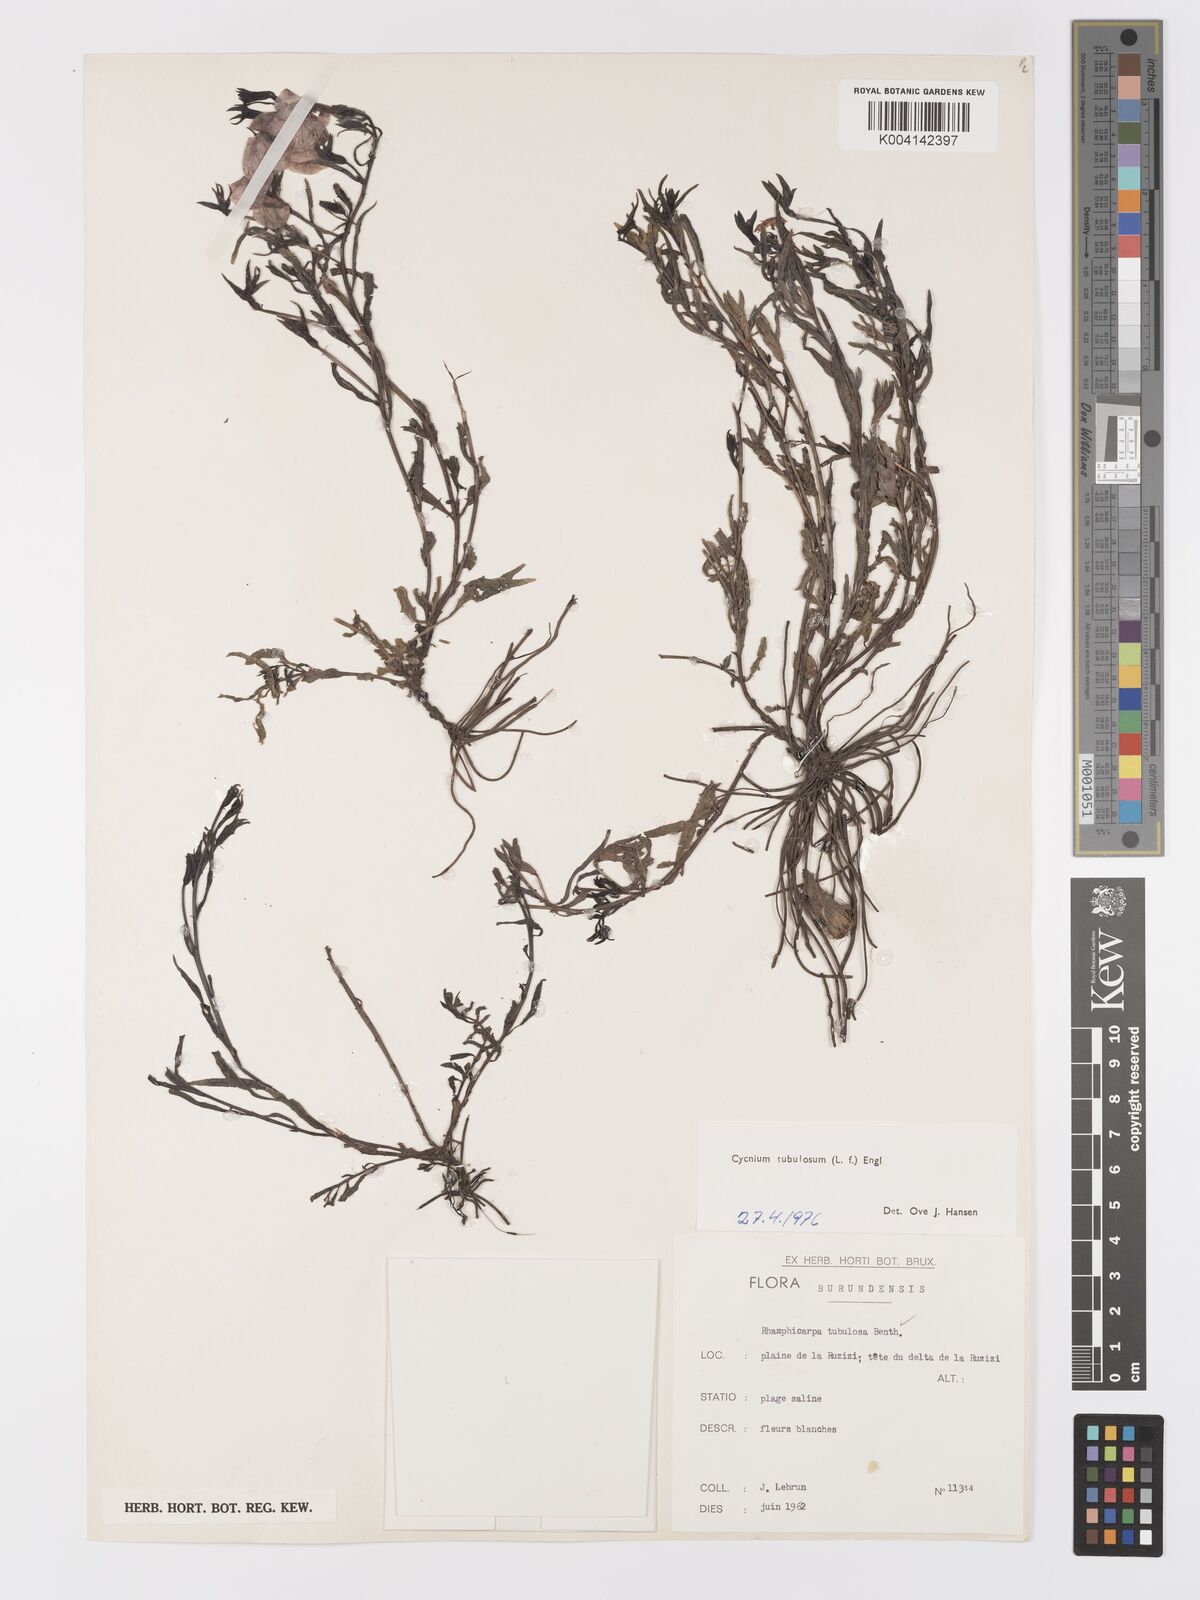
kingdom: Plantae
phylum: Tracheophyta
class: Magnoliopsida
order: Lamiales
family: Orobanchaceae
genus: Cycnium
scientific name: Cycnium tubulosum
